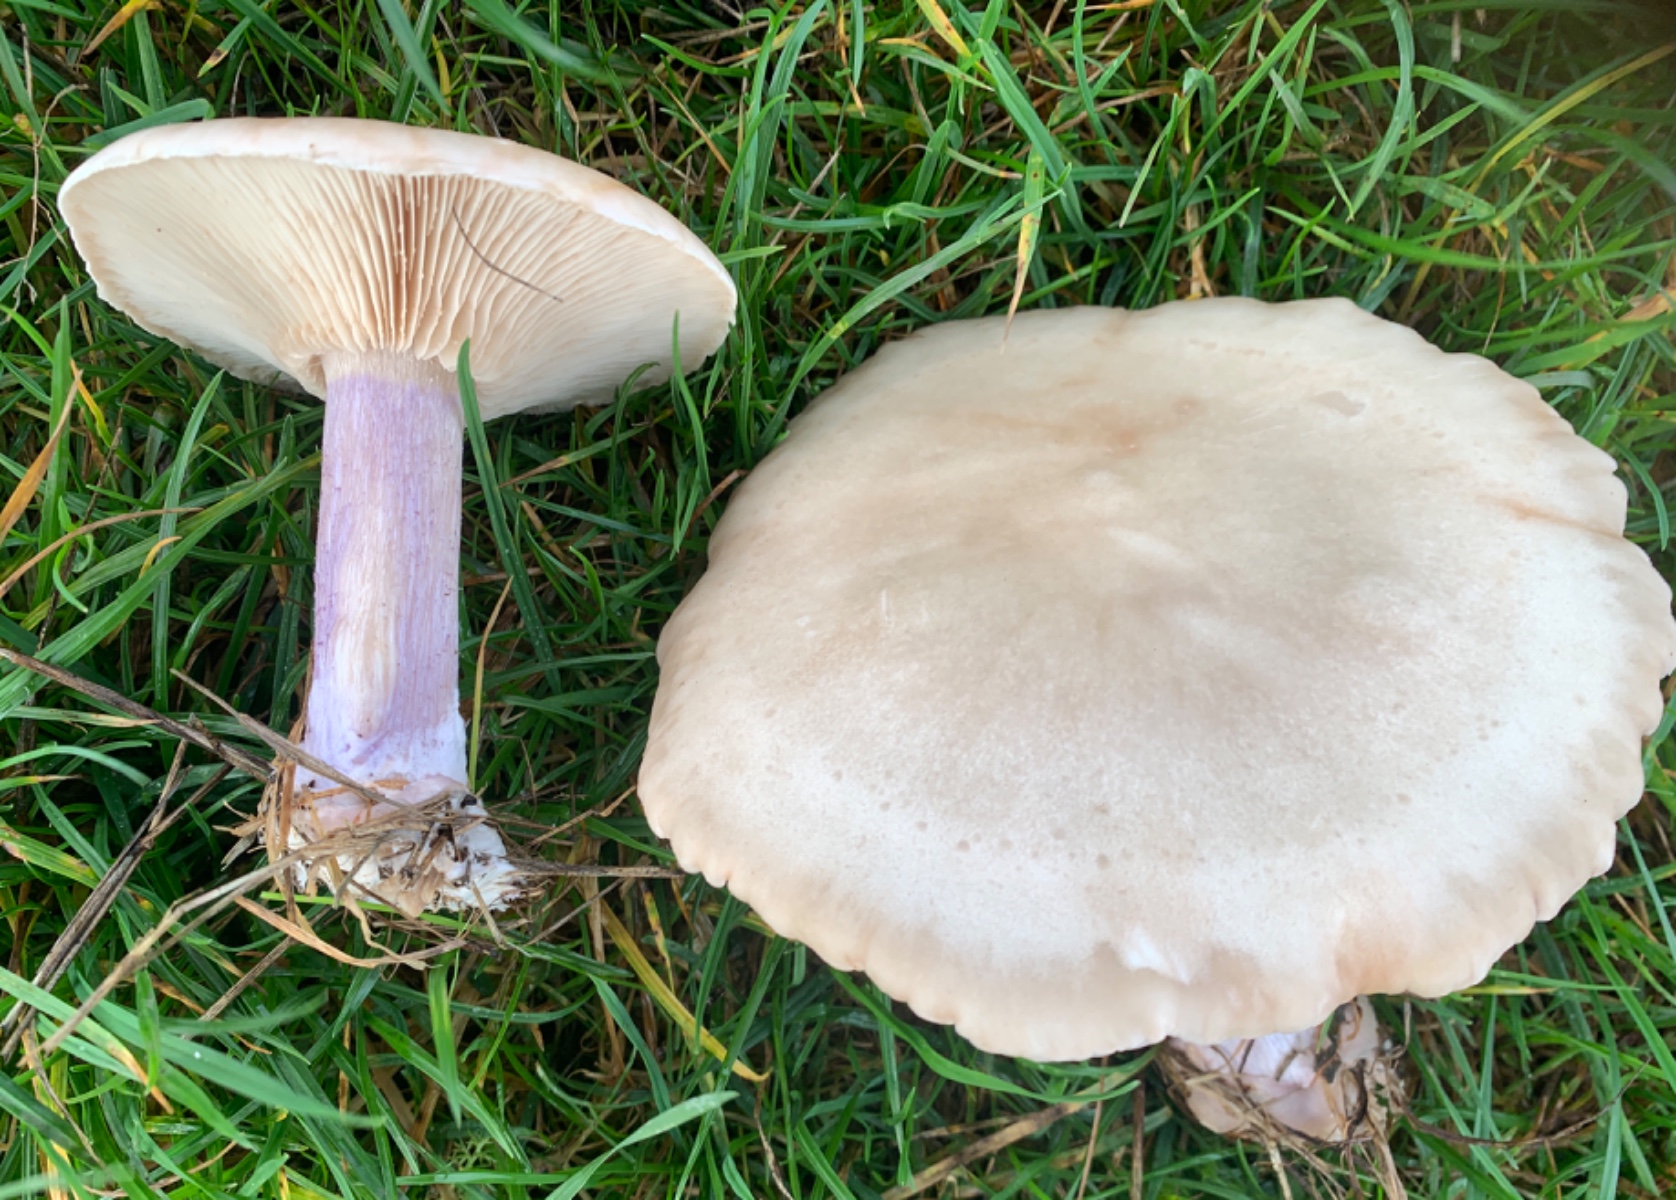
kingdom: Fungi
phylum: Basidiomycota
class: Agaricomycetes
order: Agaricales
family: Tricholomataceae
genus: Lepista
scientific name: Lepista personata
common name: bleg hekseringshat
